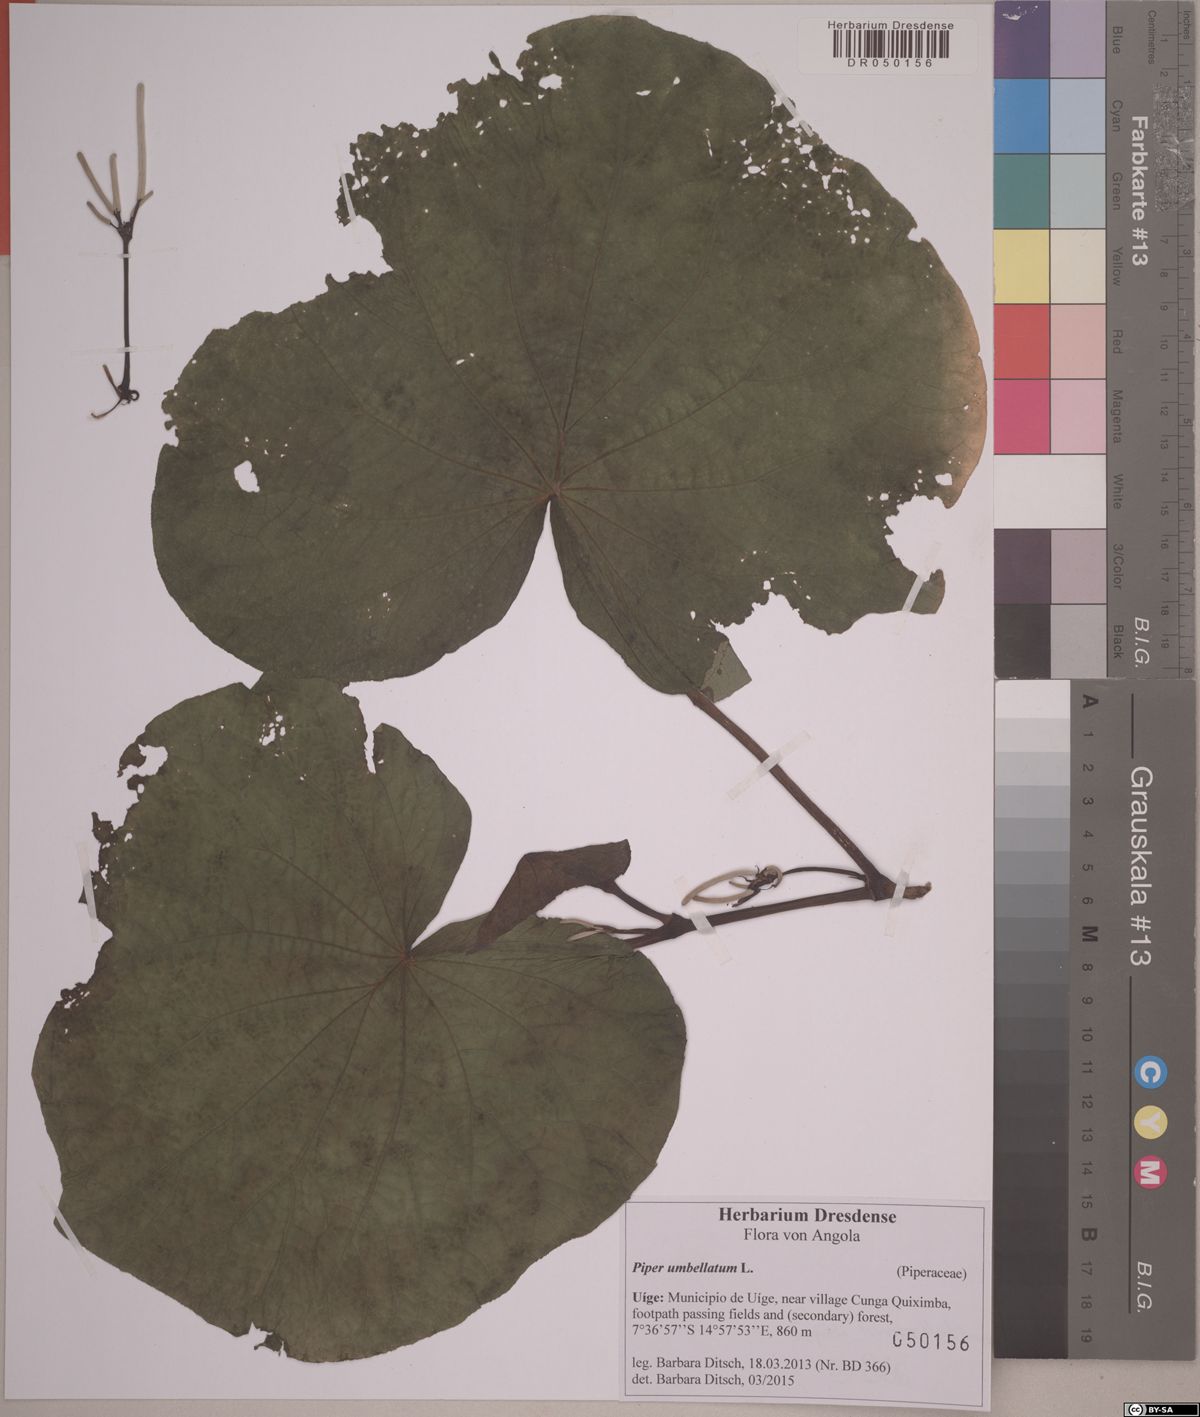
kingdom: Plantae
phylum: Tracheophyta
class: Magnoliopsida
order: Piperales
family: Piperaceae
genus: Piper
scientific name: Piper umbellatum
